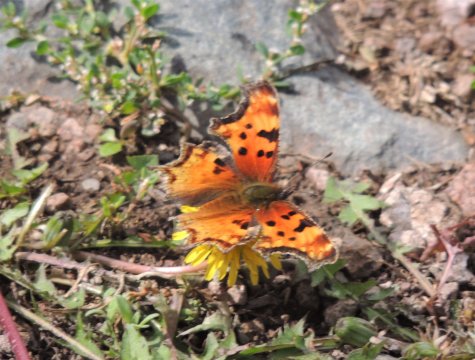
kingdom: Animalia
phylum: Arthropoda
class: Insecta
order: Lepidoptera
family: Nymphalidae
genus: Polygonia
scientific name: Polygonia gracilis
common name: Hoary Comma
